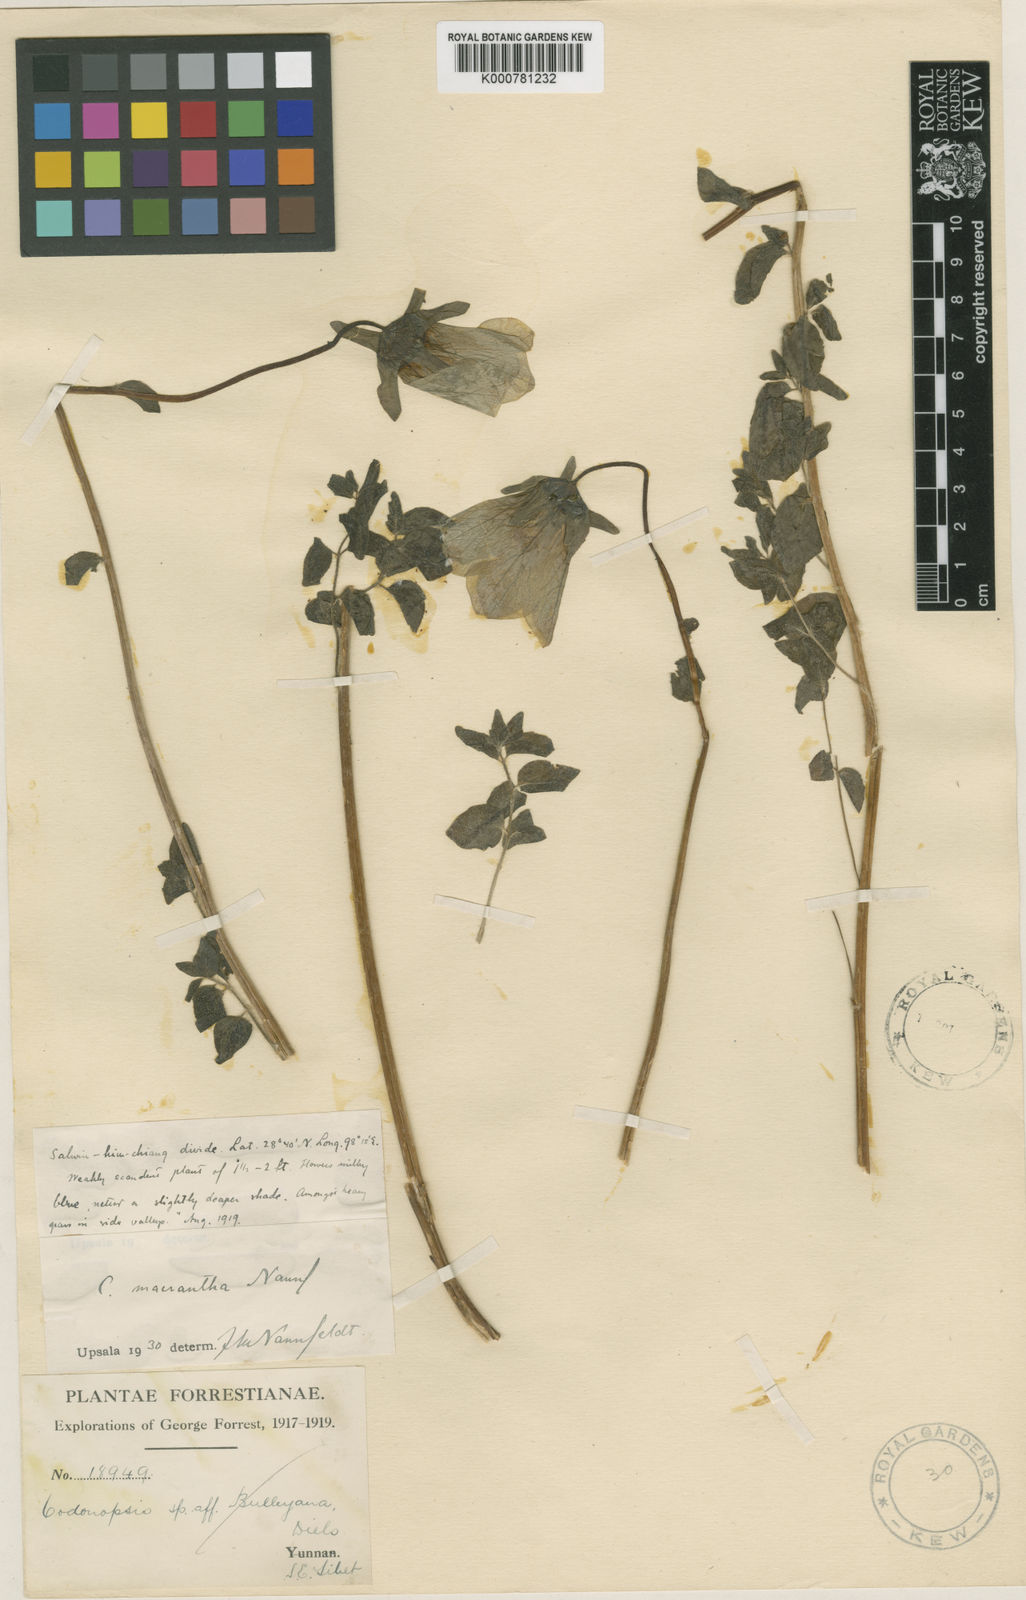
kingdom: Plantae
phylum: Tracheophyta
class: Magnoliopsida
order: Asterales
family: Campanulaceae
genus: Codonopsis
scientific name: Codonopsis foetens
